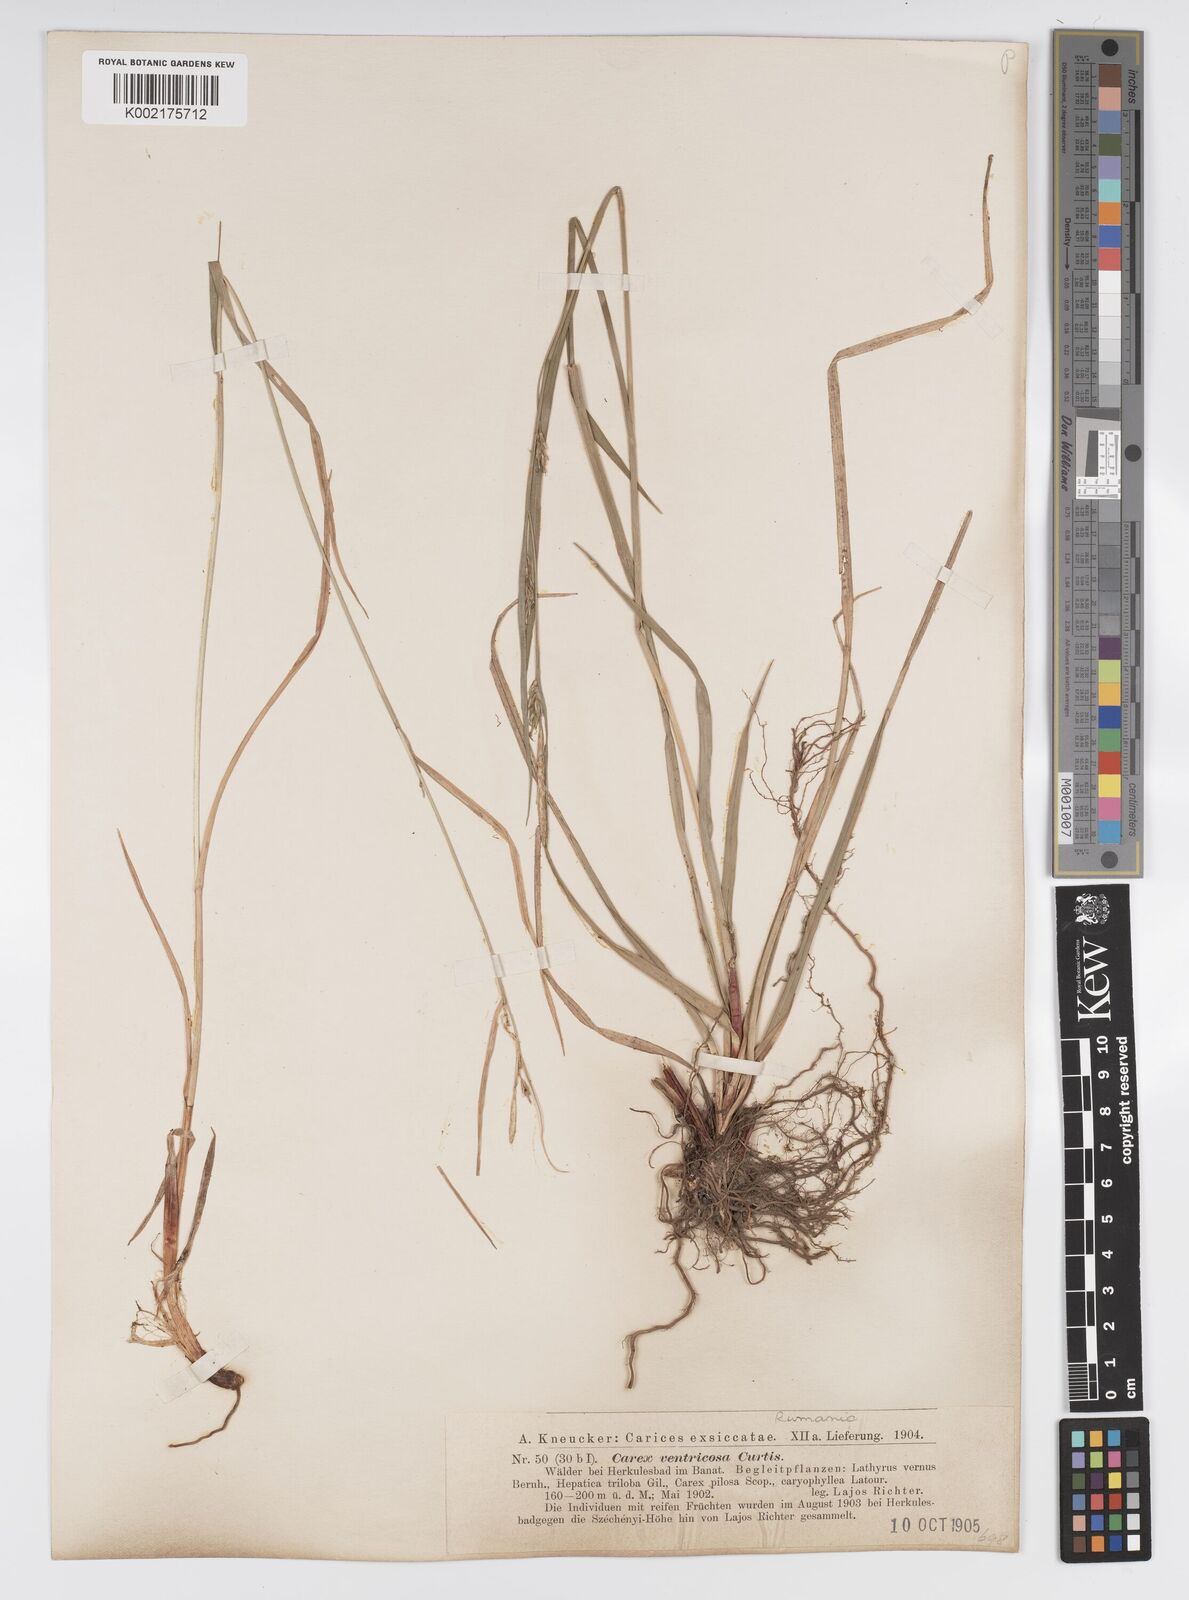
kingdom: Plantae
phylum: Tracheophyta
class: Liliopsida
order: Poales
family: Cyperaceae
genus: Carex
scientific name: Carex
